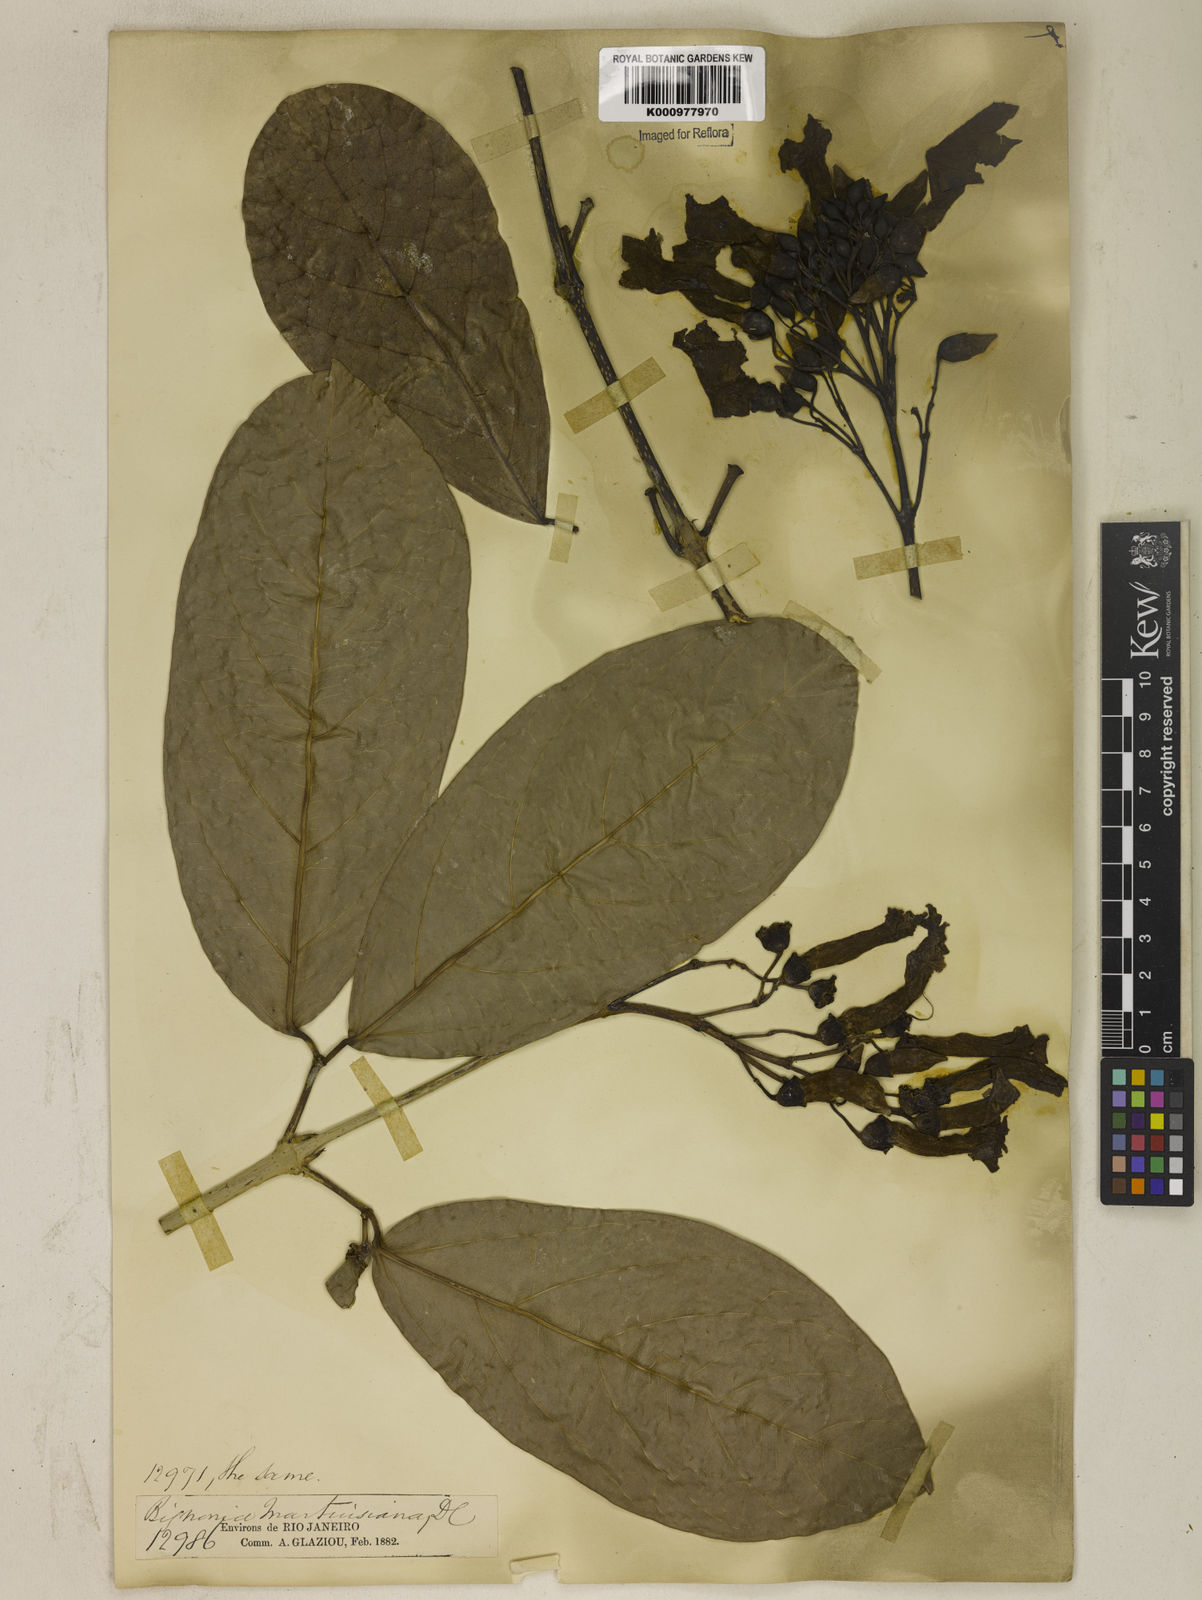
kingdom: Plantae
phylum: Tracheophyta
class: Magnoliopsida
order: Lamiales
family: Bignoniaceae
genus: Tanaecium
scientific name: Tanaecium pyramidatum
